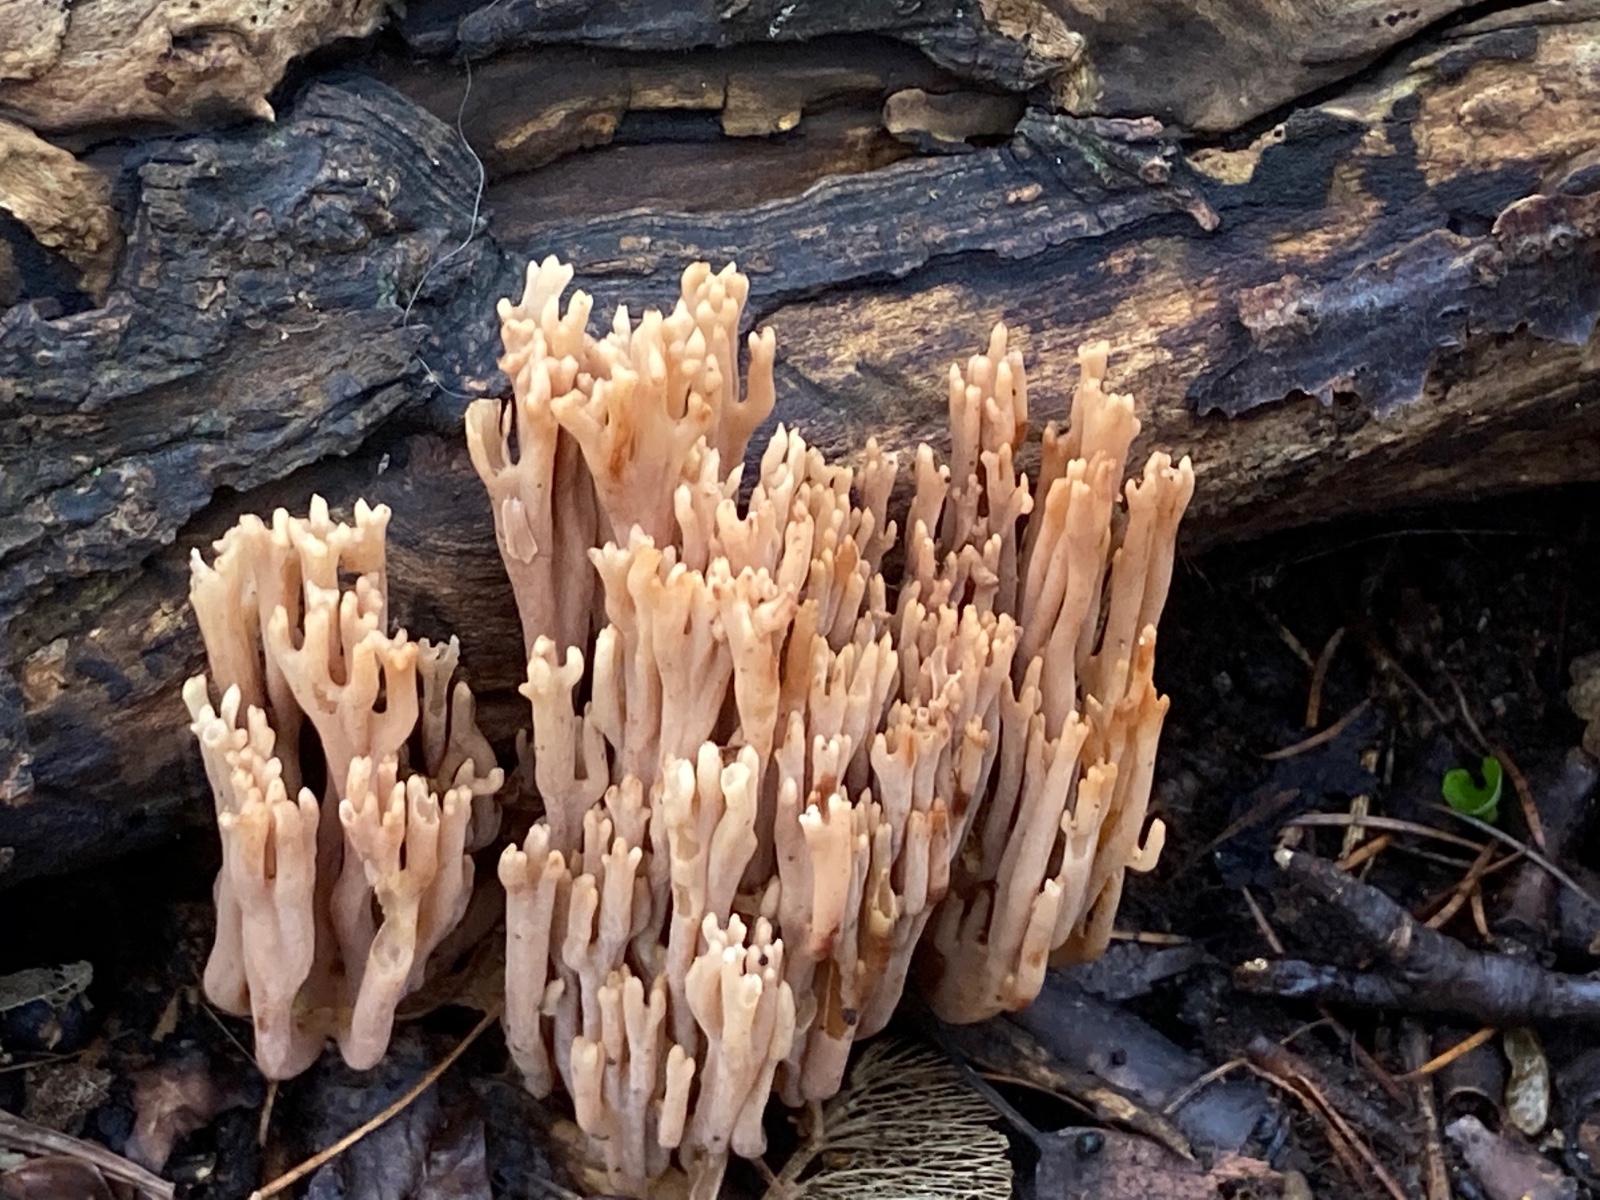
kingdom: Fungi
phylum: Basidiomycota
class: Agaricomycetes
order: Gomphales
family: Gomphaceae
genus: Ramaria
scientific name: Ramaria stricta
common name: rank koralsvamp
